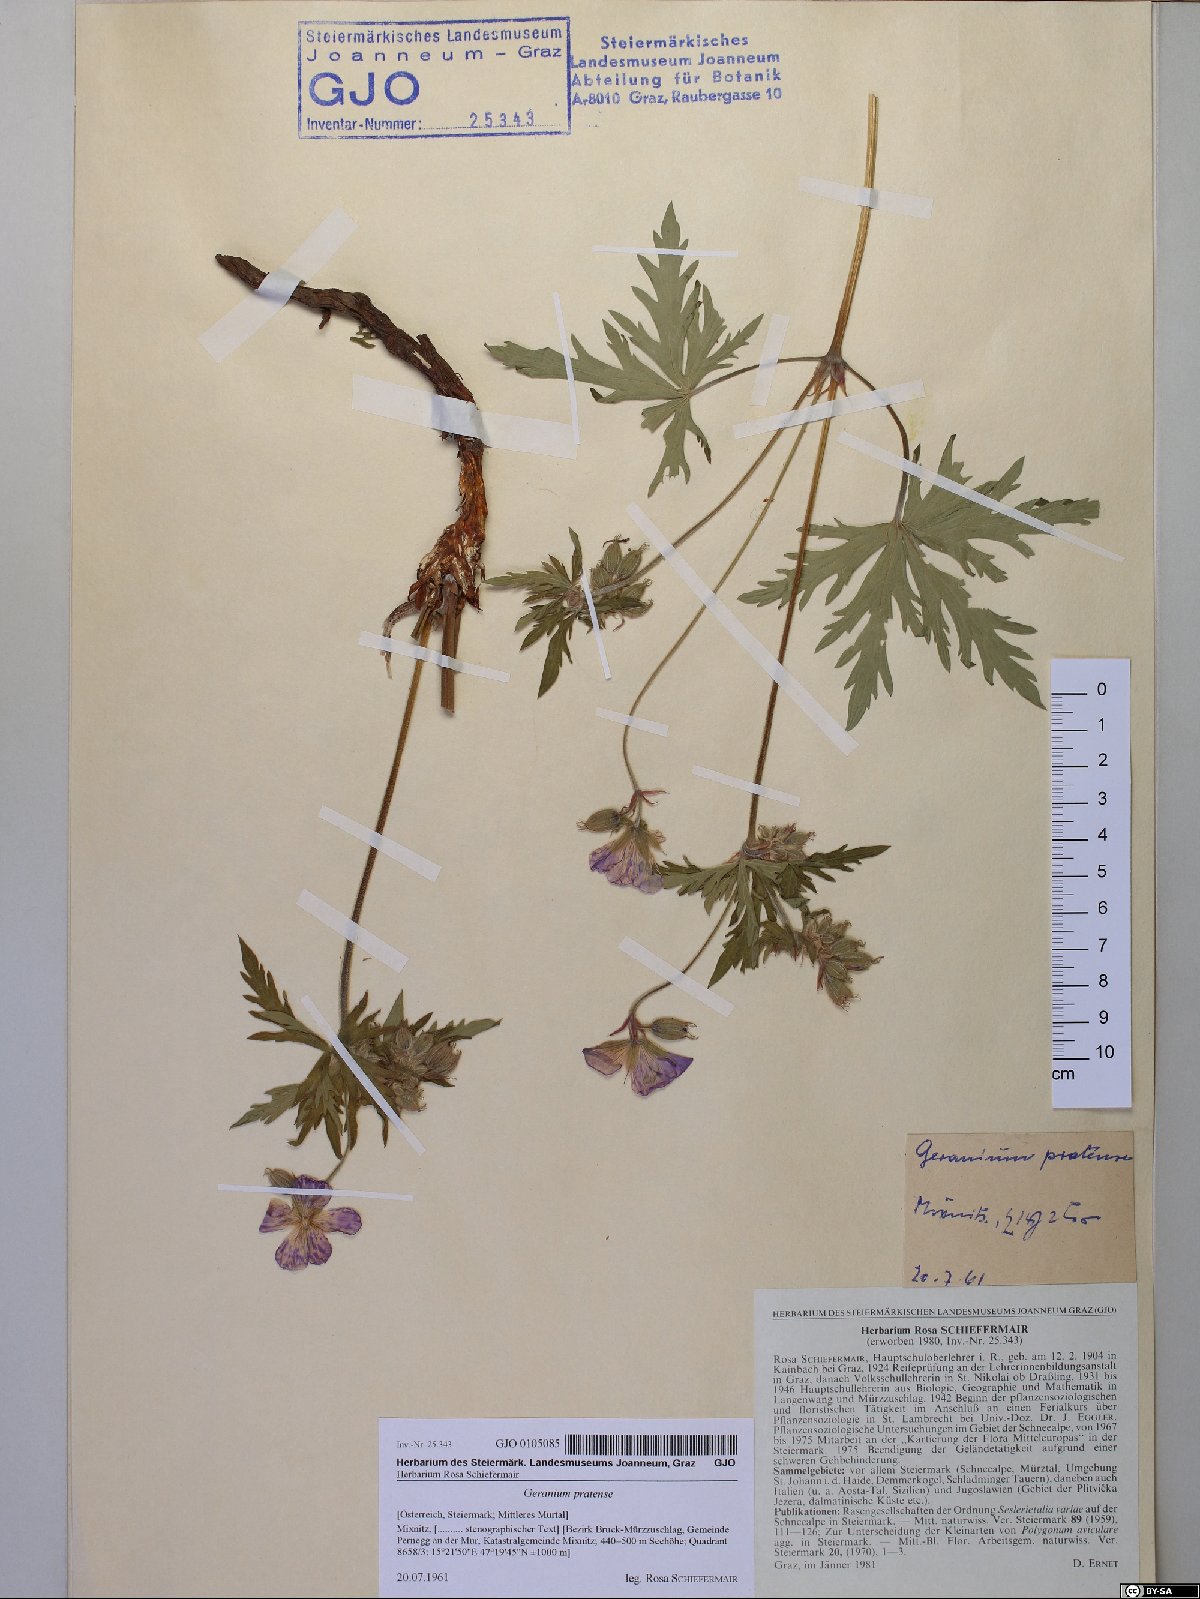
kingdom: Plantae
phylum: Tracheophyta
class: Magnoliopsida
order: Geraniales
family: Geraniaceae
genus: Geranium
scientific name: Geranium pratense
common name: Meadow crane's-bill
